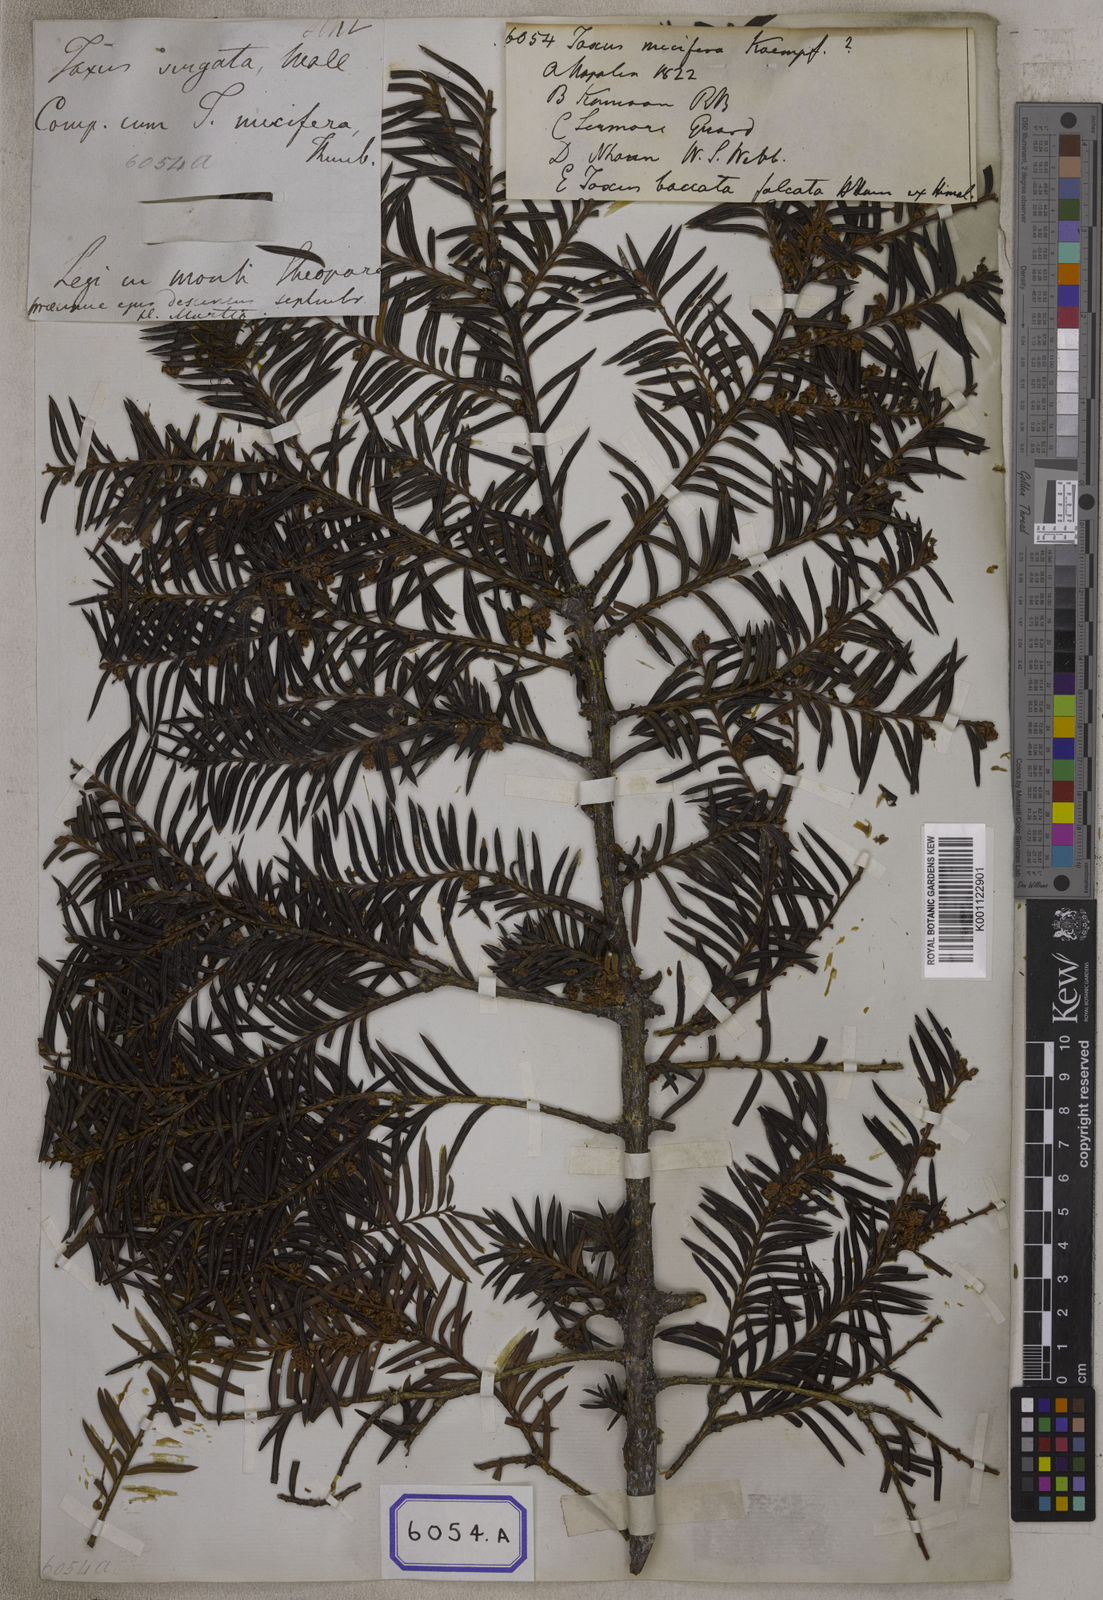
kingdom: Plantae
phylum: Tracheophyta
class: Pinopsida
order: Pinales
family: Taxaceae
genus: Torreya
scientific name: Torreya nucifera
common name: Japanese nutmeg tree
